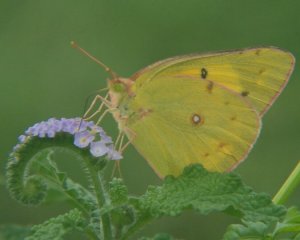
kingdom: Animalia
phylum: Arthropoda
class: Insecta
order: Lepidoptera
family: Pieridae
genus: Colias
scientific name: Colias eurytheme
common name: Orange Sulphur
